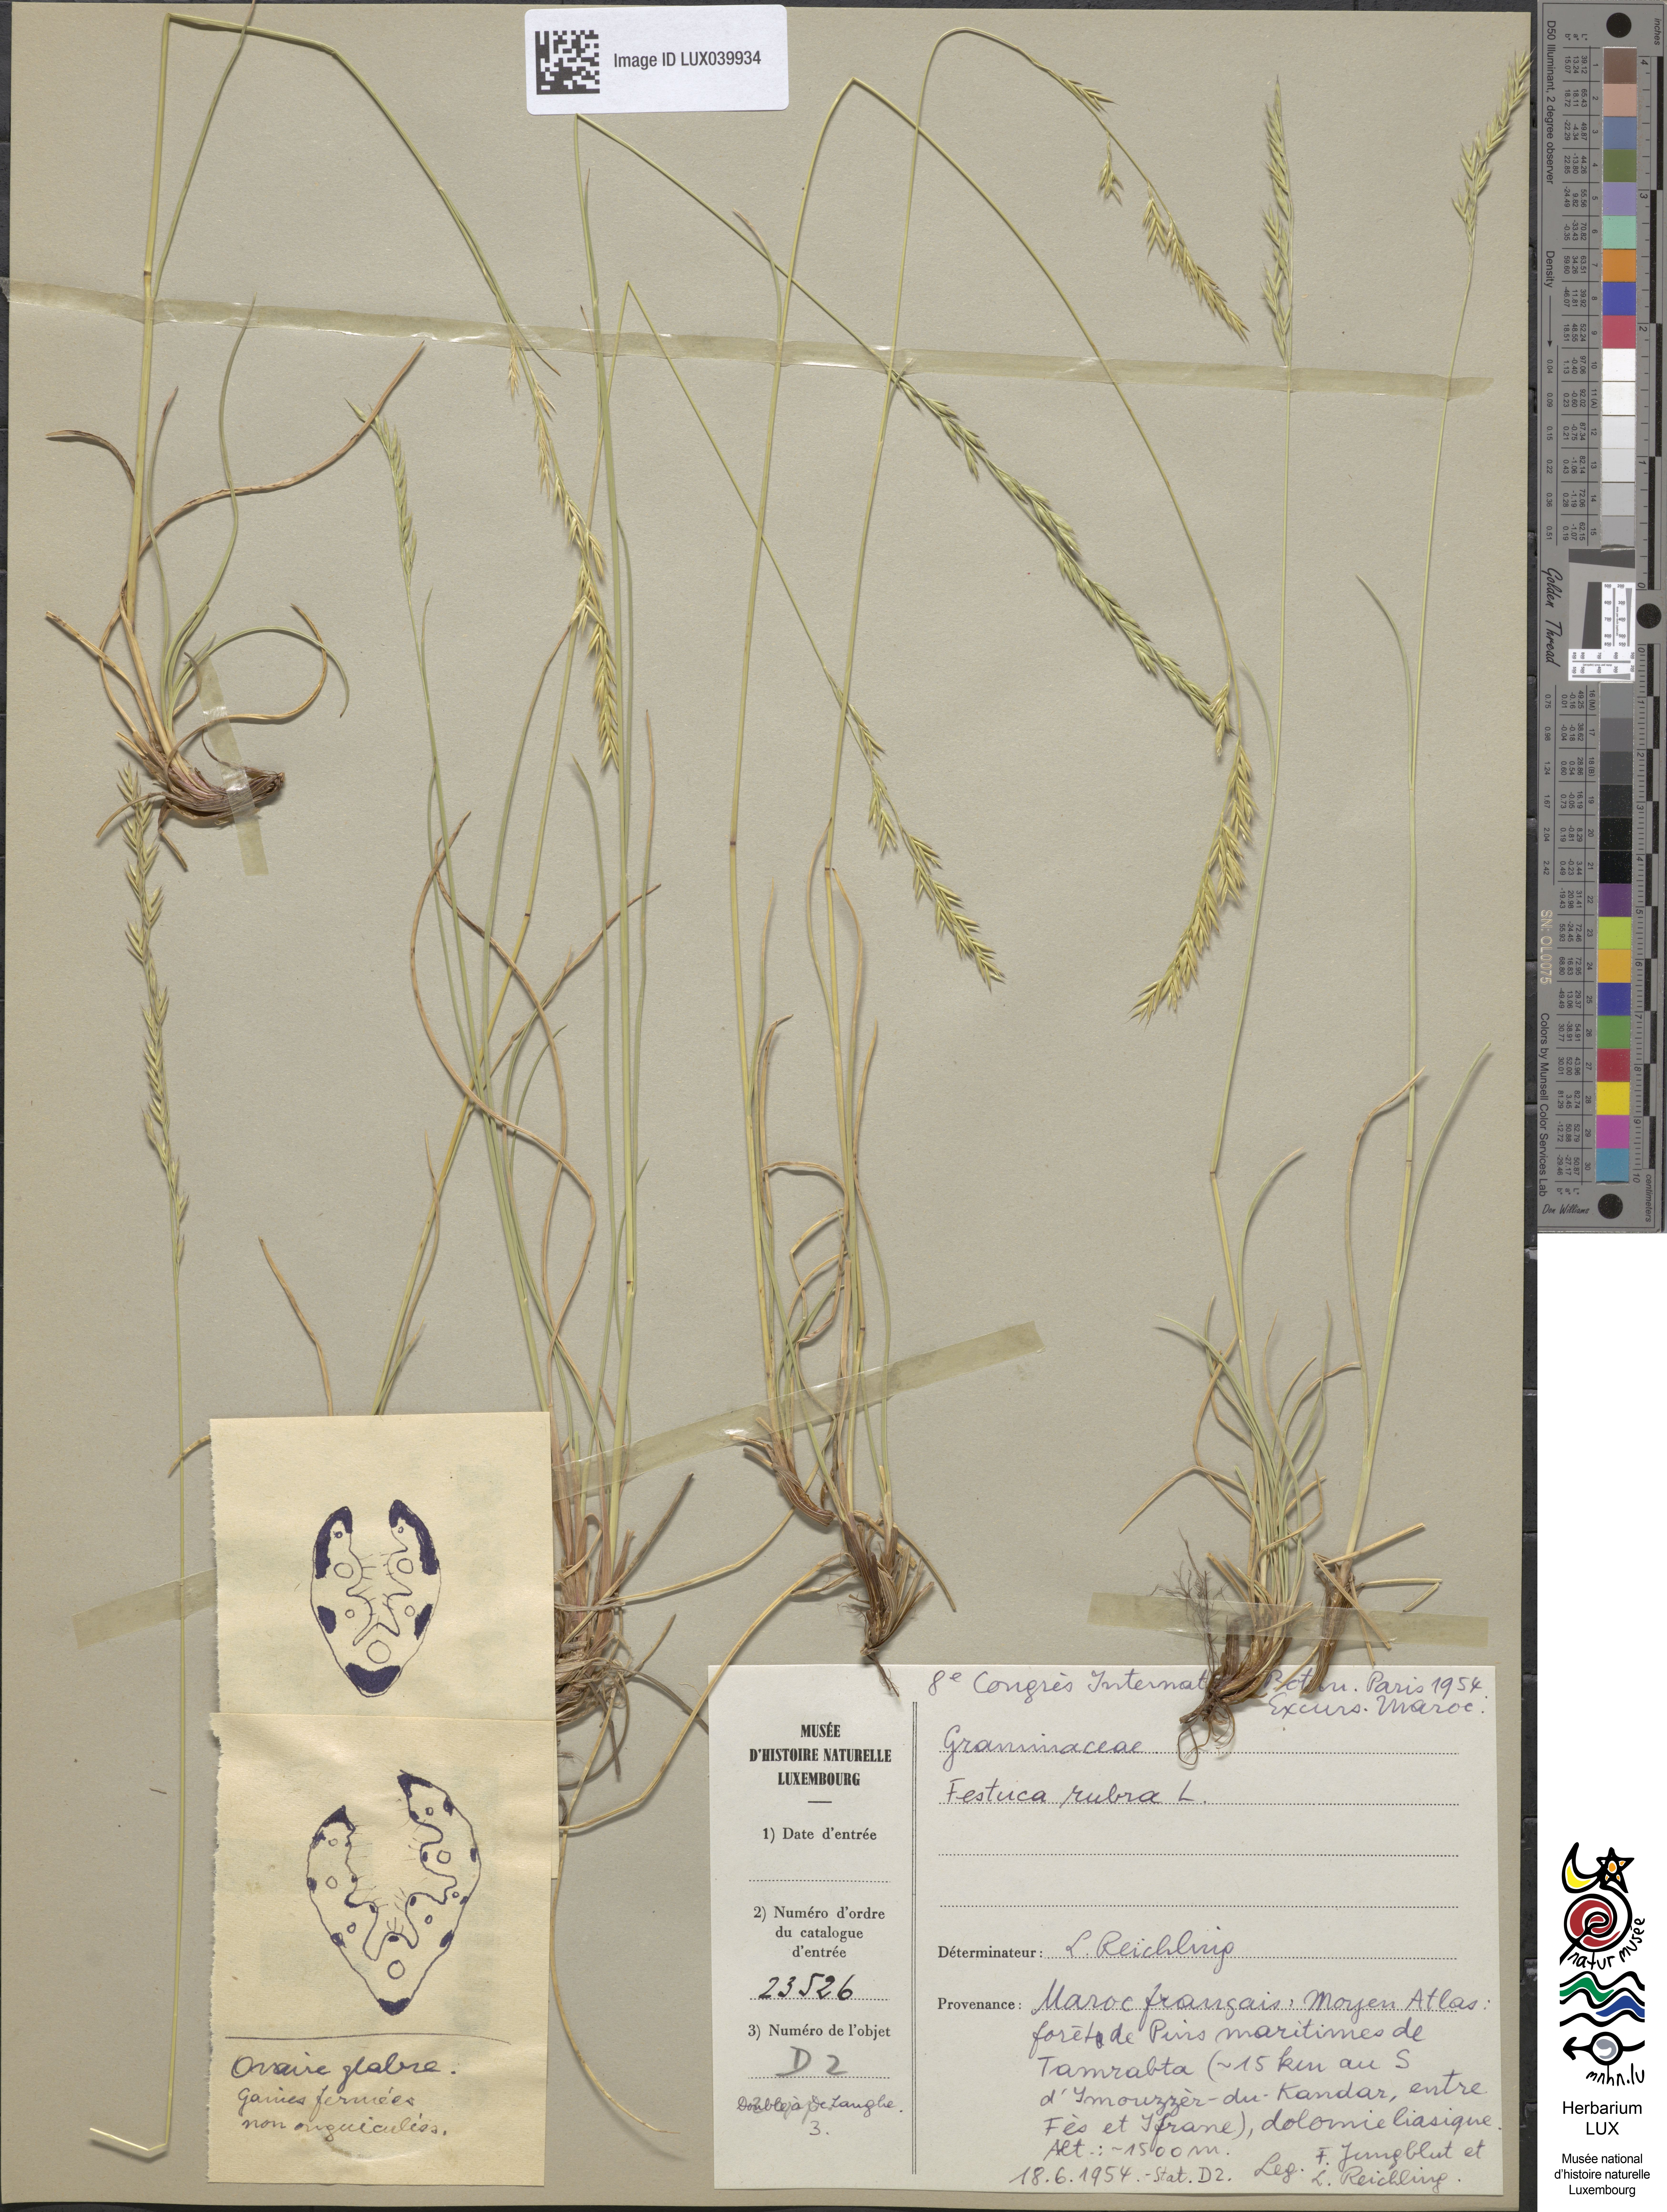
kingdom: Plantae
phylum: Tracheophyta
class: Liliopsida
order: Poales
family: Poaceae
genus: Festuca
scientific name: Festuca rubra
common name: Red fescue
